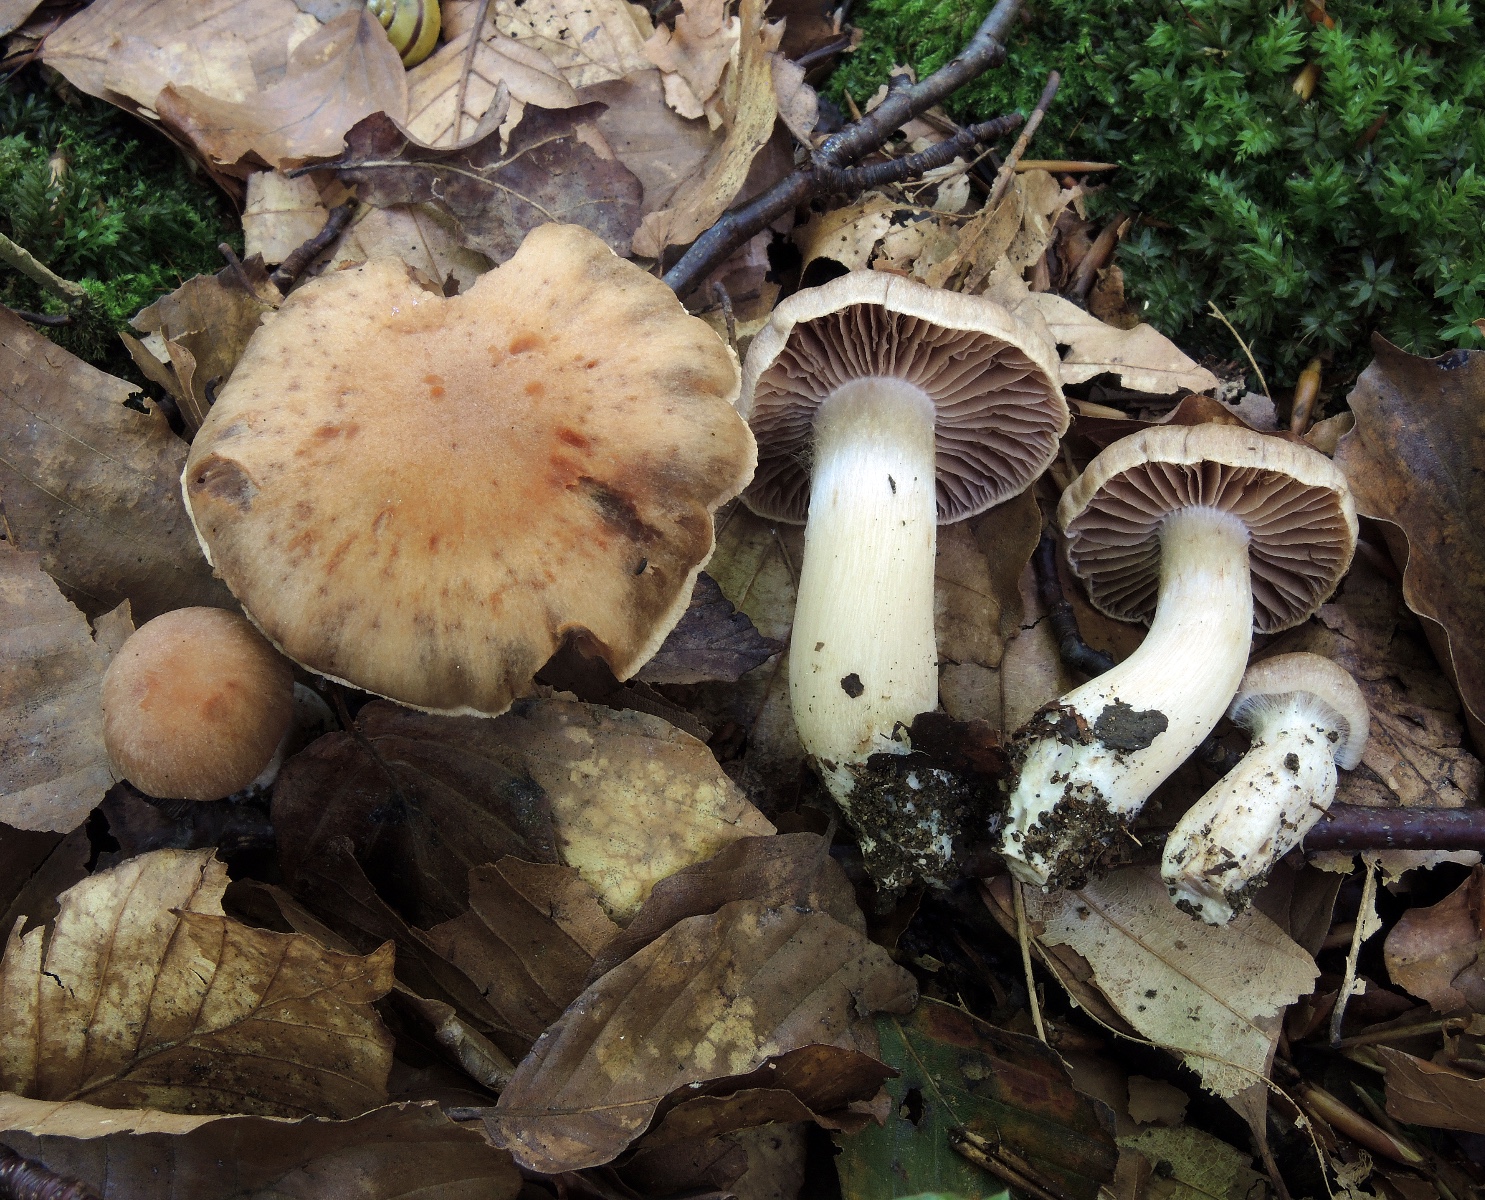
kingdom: Fungi
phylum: Basidiomycota
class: Agaricomycetes
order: Agaricales
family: Cortinariaceae
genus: Cortinarius
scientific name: Cortinarius spisnii
